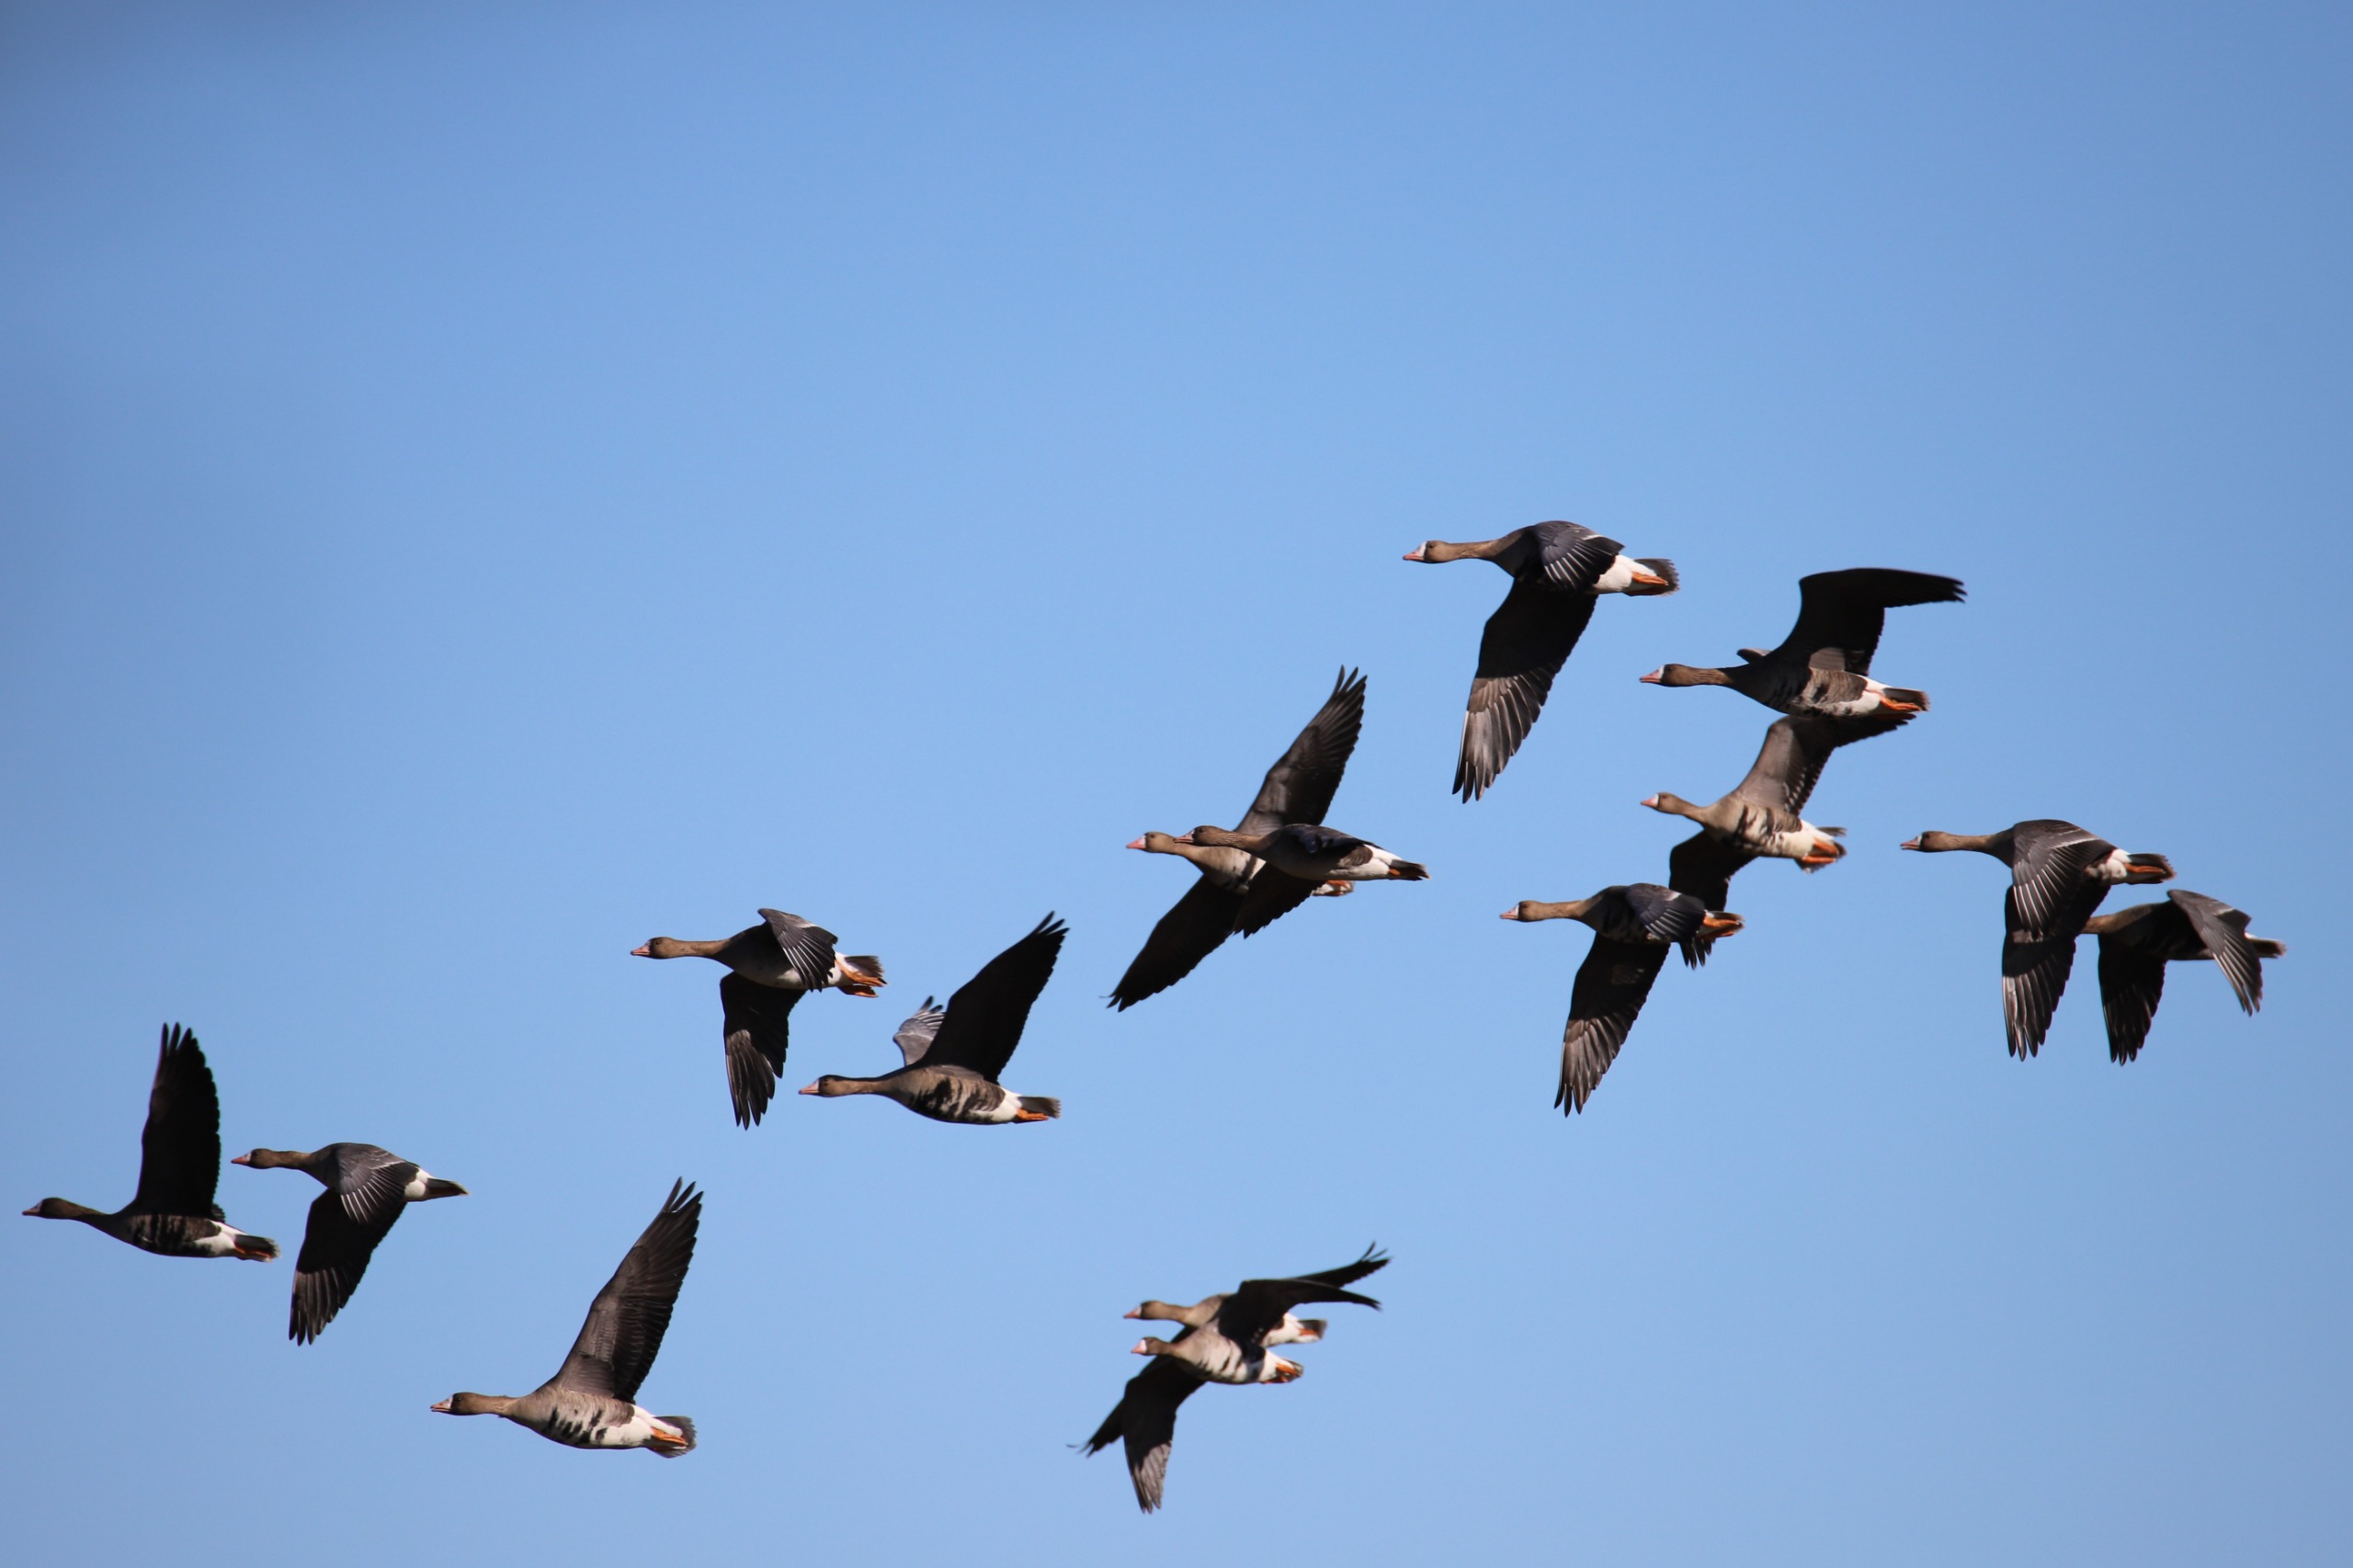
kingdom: Animalia
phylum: Chordata
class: Aves
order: Anseriformes
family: Anatidae
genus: Anser
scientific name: Anser albifrons
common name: Blisgås
